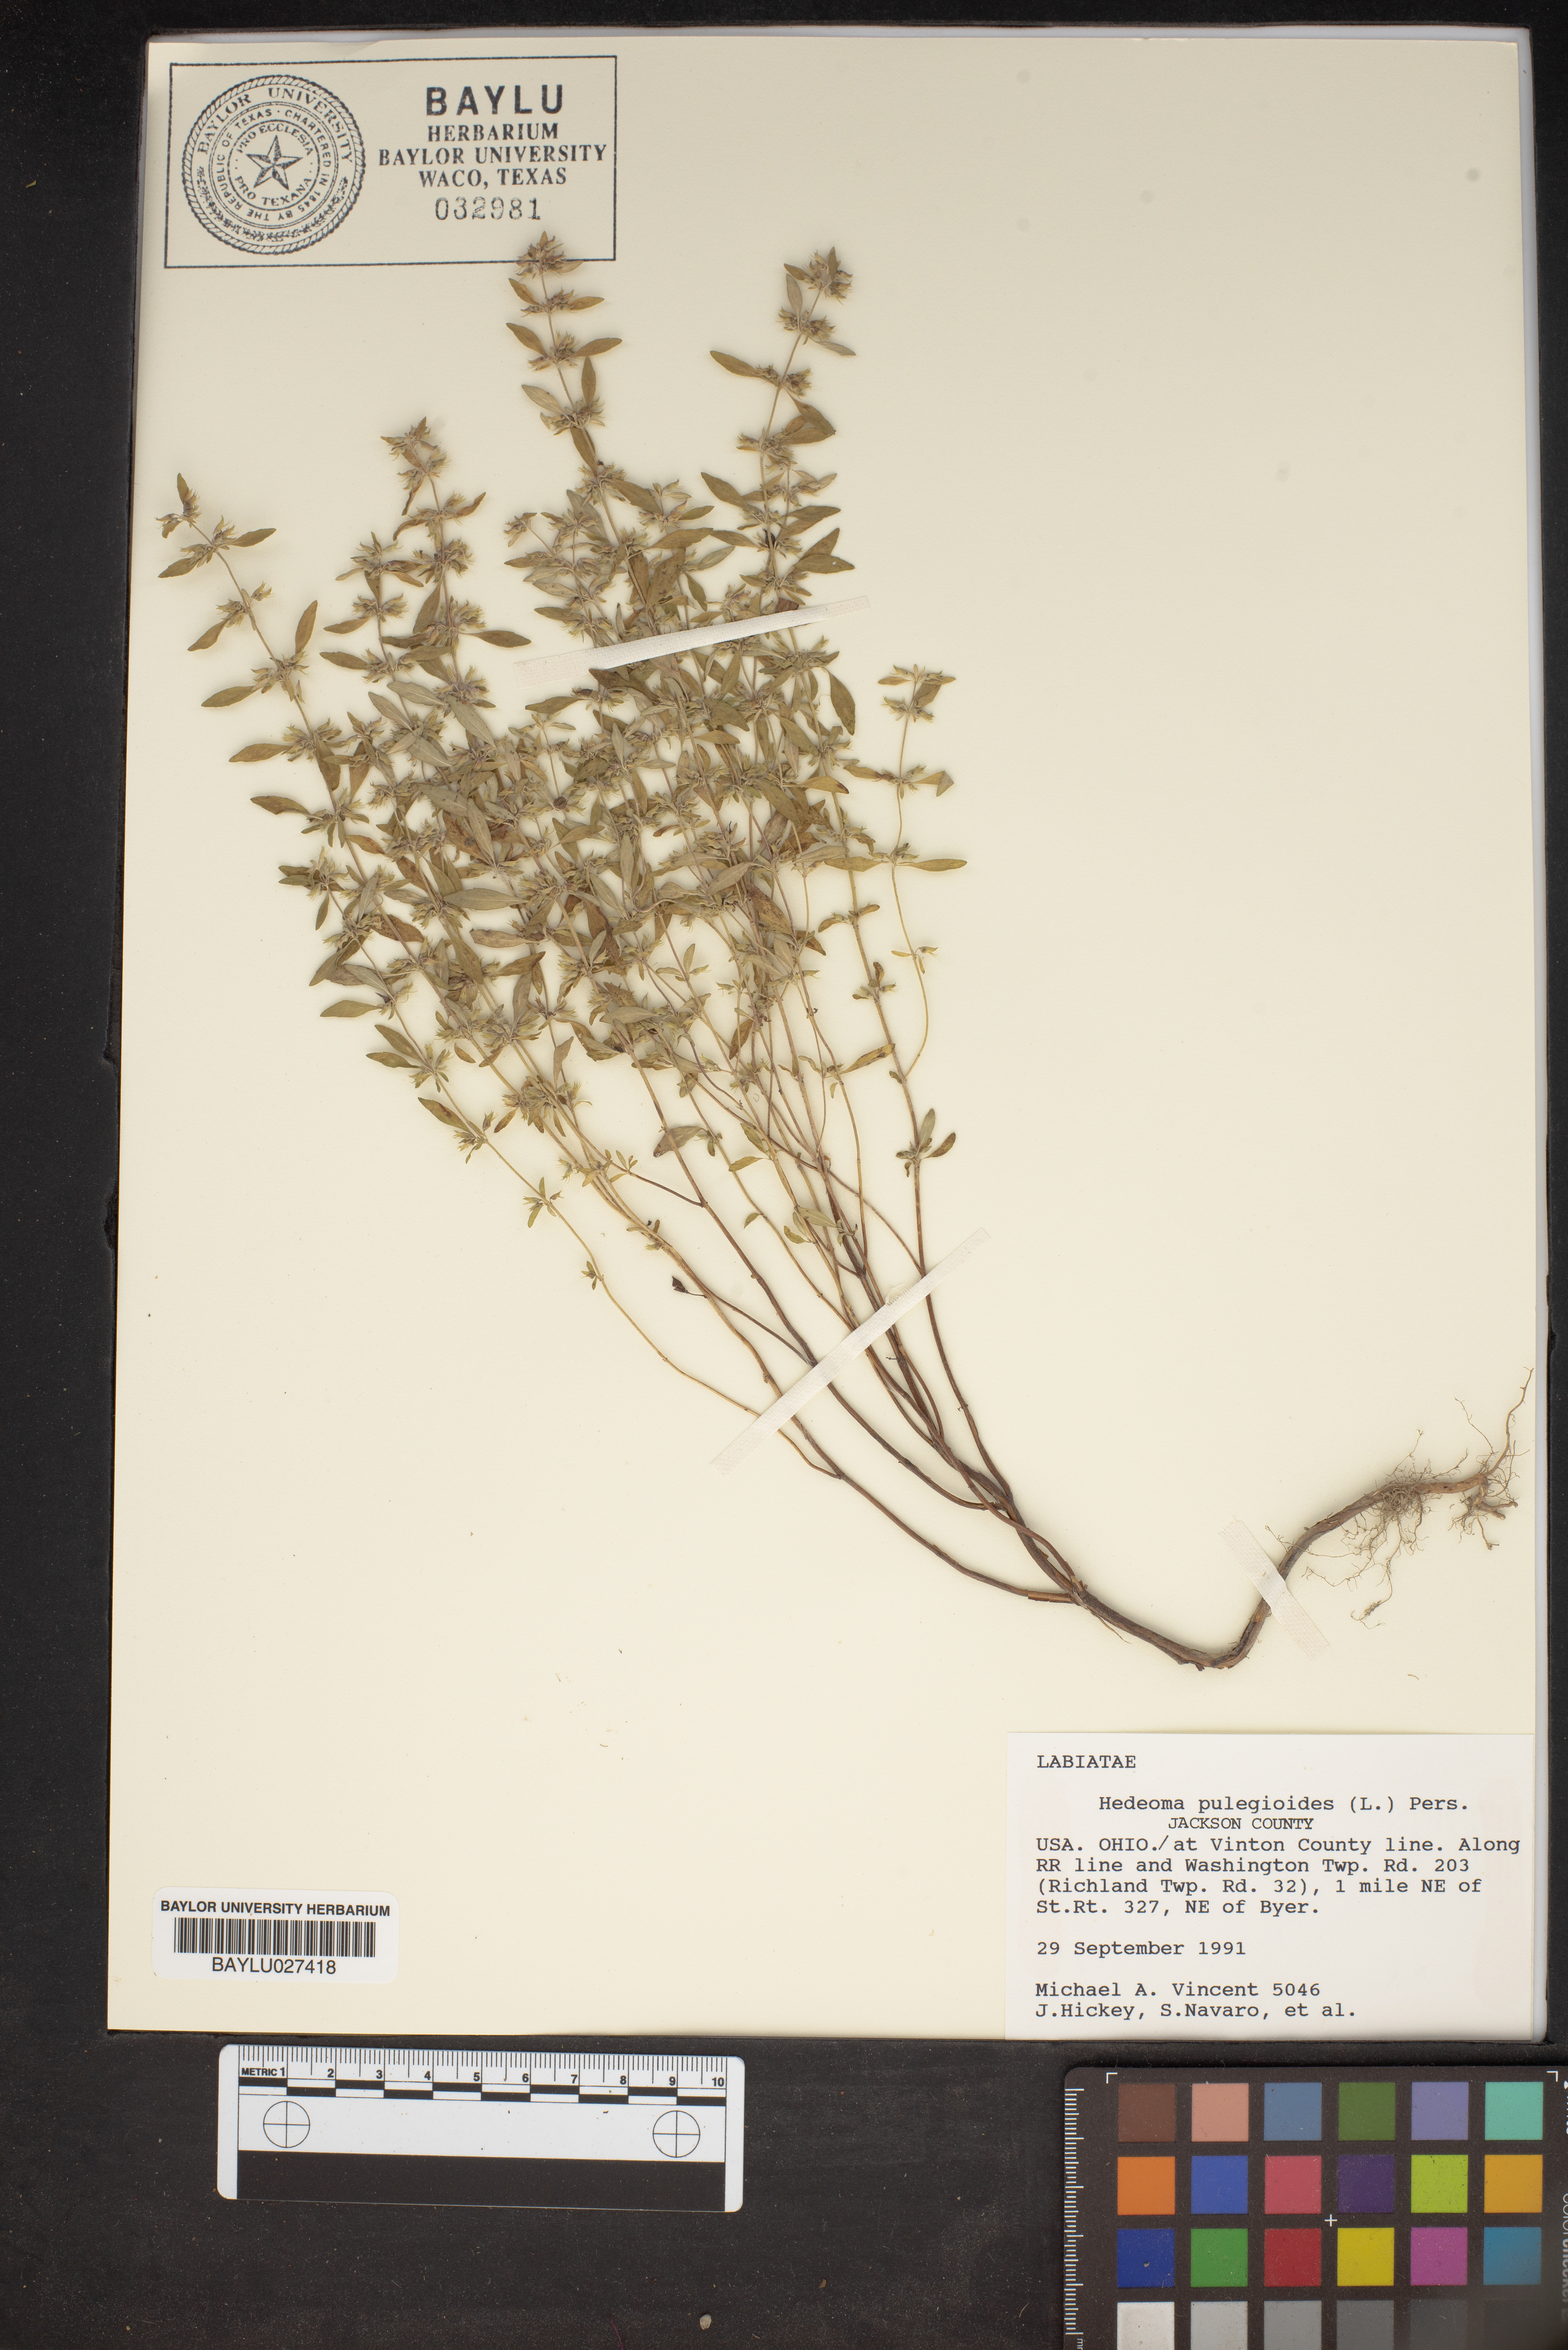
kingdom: Plantae
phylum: Tracheophyta
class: Magnoliopsida
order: Lamiales
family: Lamiaceae
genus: Hedeoma
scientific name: Hedeoma pulegioides
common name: American false pennyroyal
